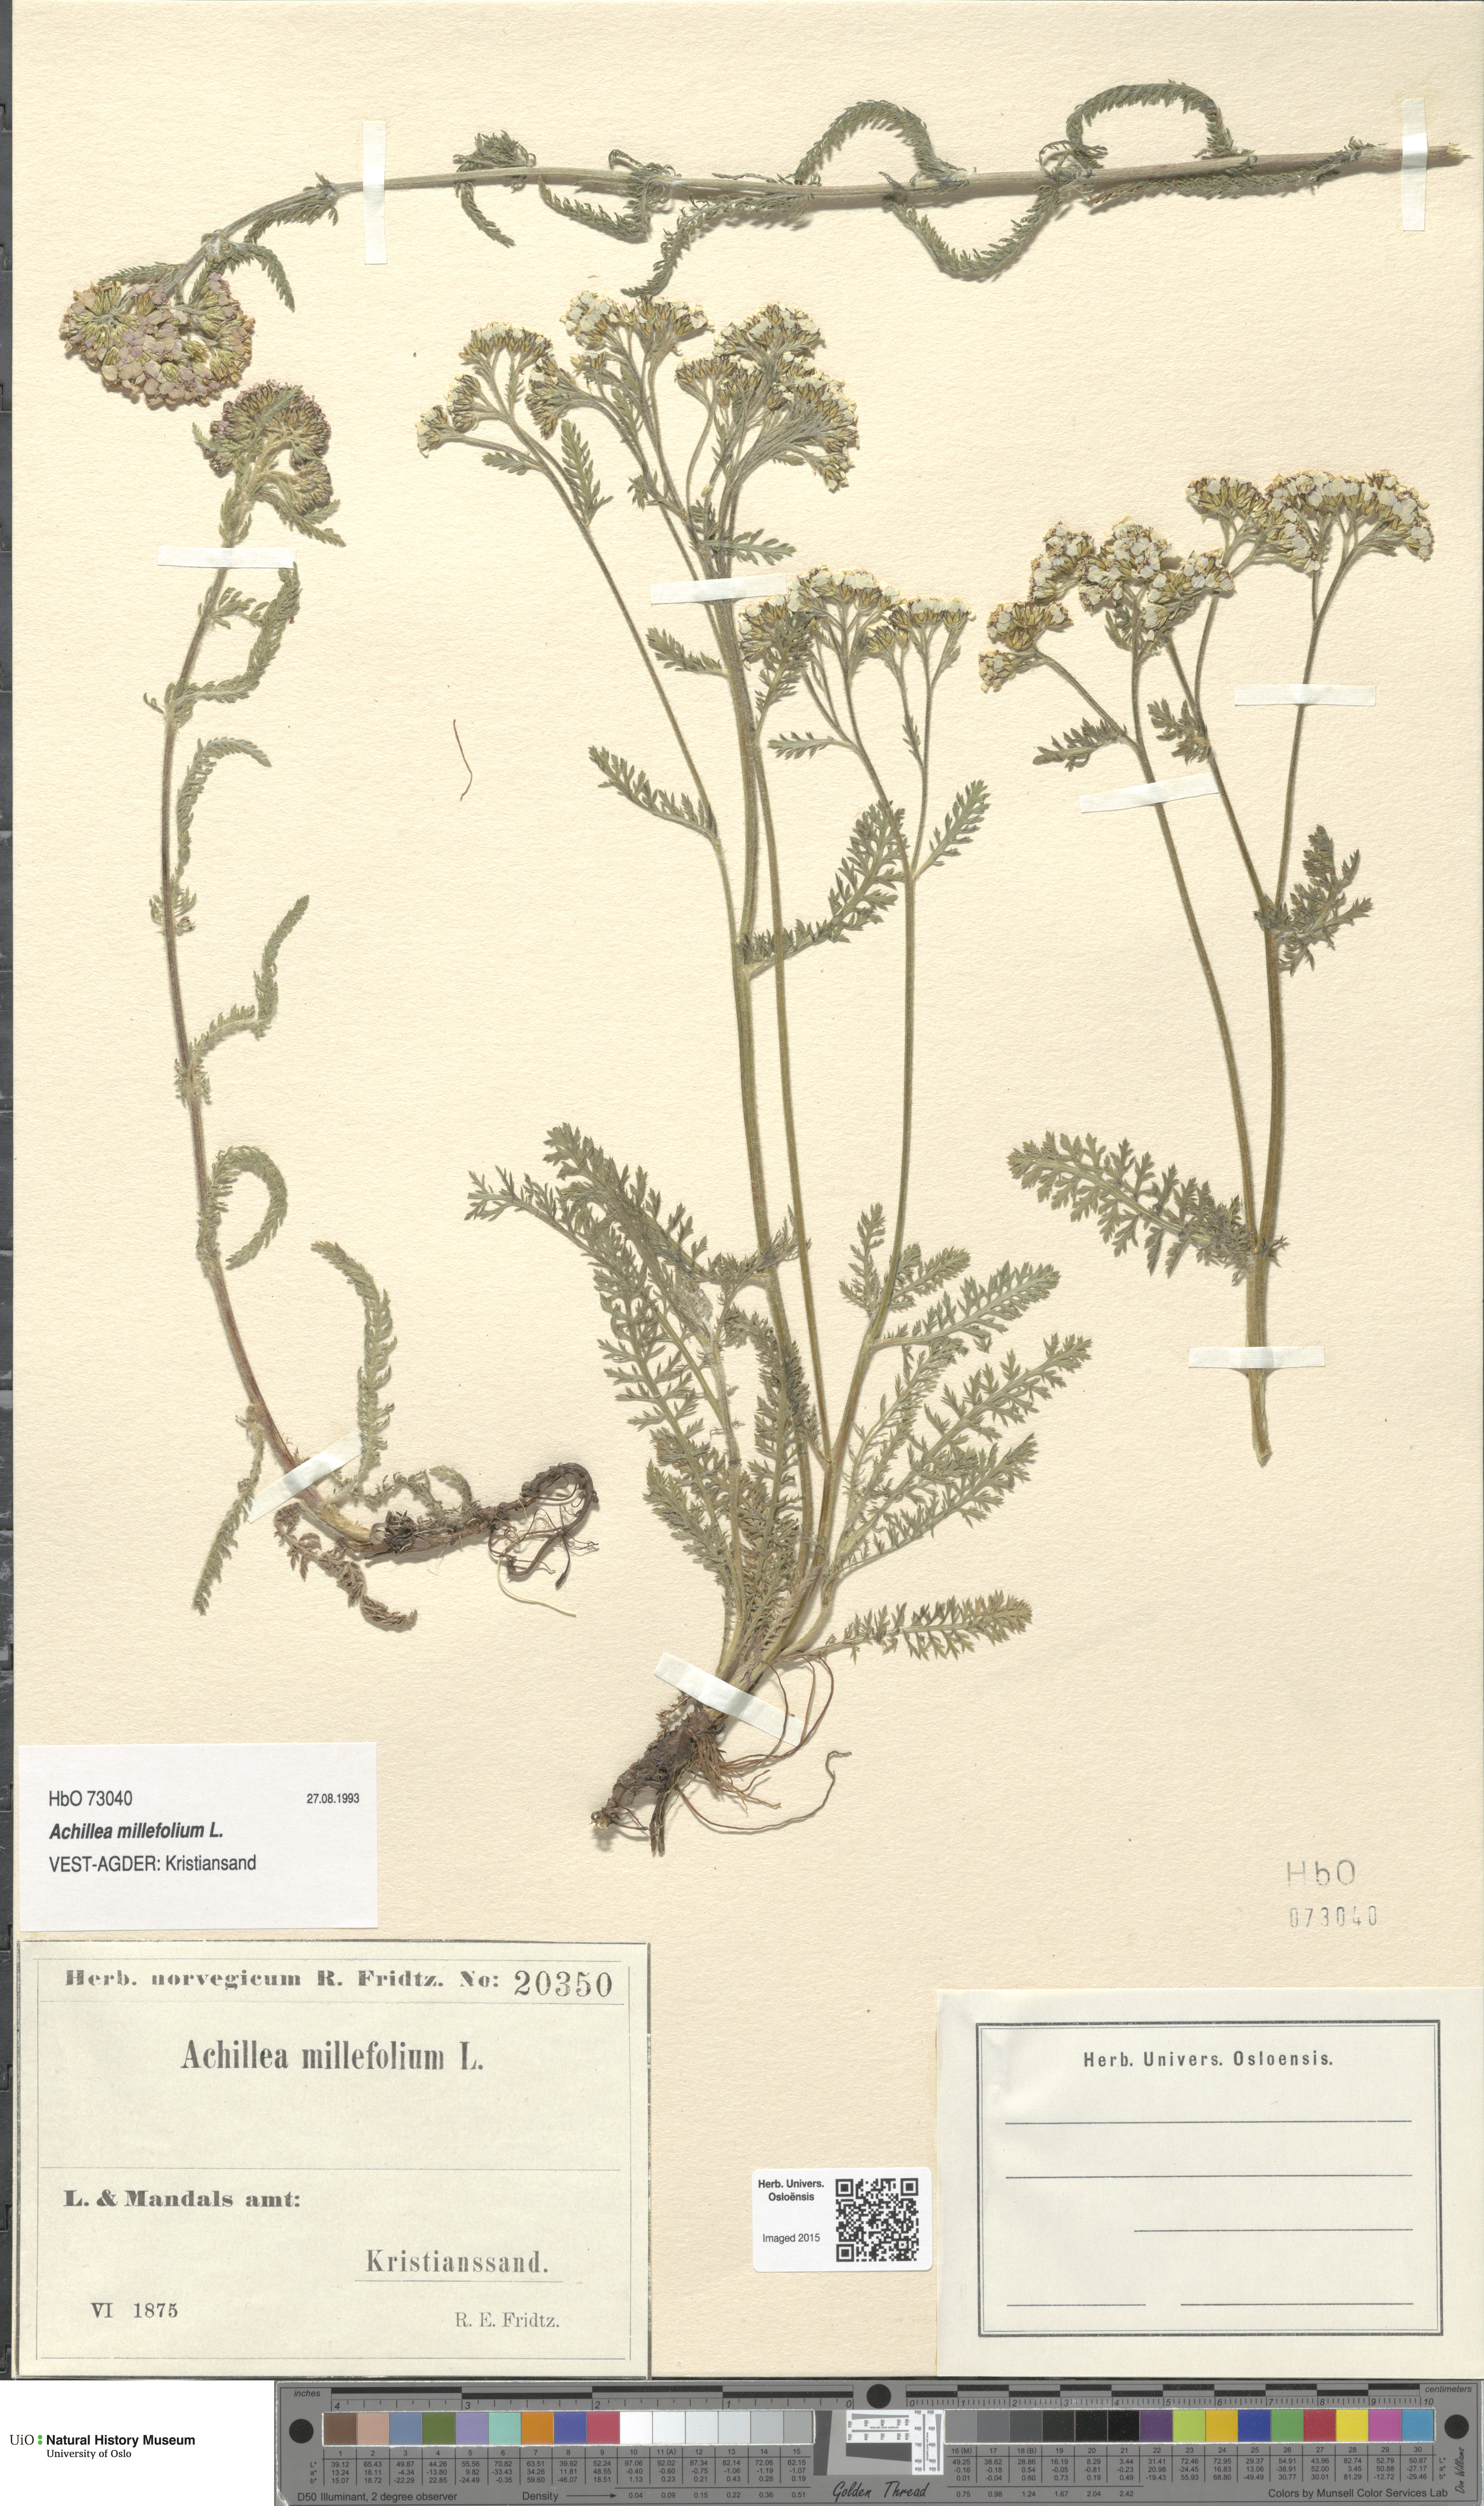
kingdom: Plantae
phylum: Tracheophyta
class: Magnoliopsida
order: Asterales
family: Asteraceae
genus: Achillea
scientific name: Achillea millefolium
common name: Yarrow
